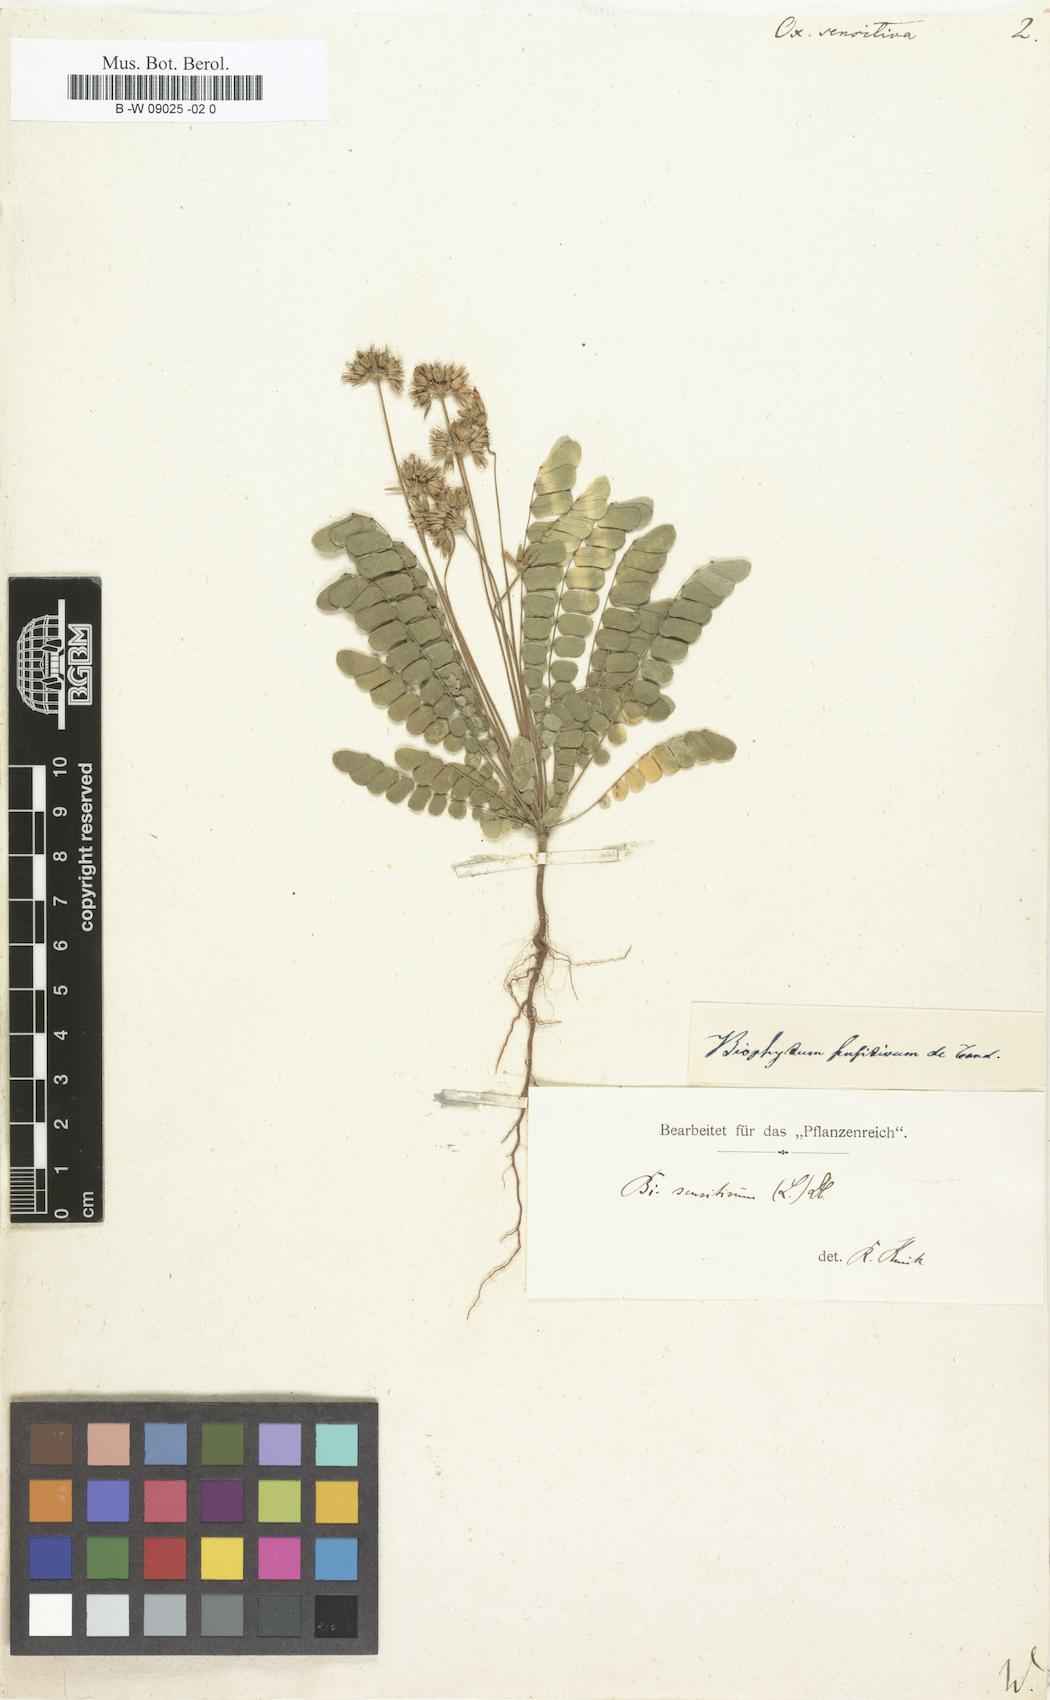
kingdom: Plantae
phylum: Tracheophyta
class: Magnoliopsida
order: Oxalidales
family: Oxalidaceae
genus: Biophytum
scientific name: Biophytum sensitivum
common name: Lifeplant
